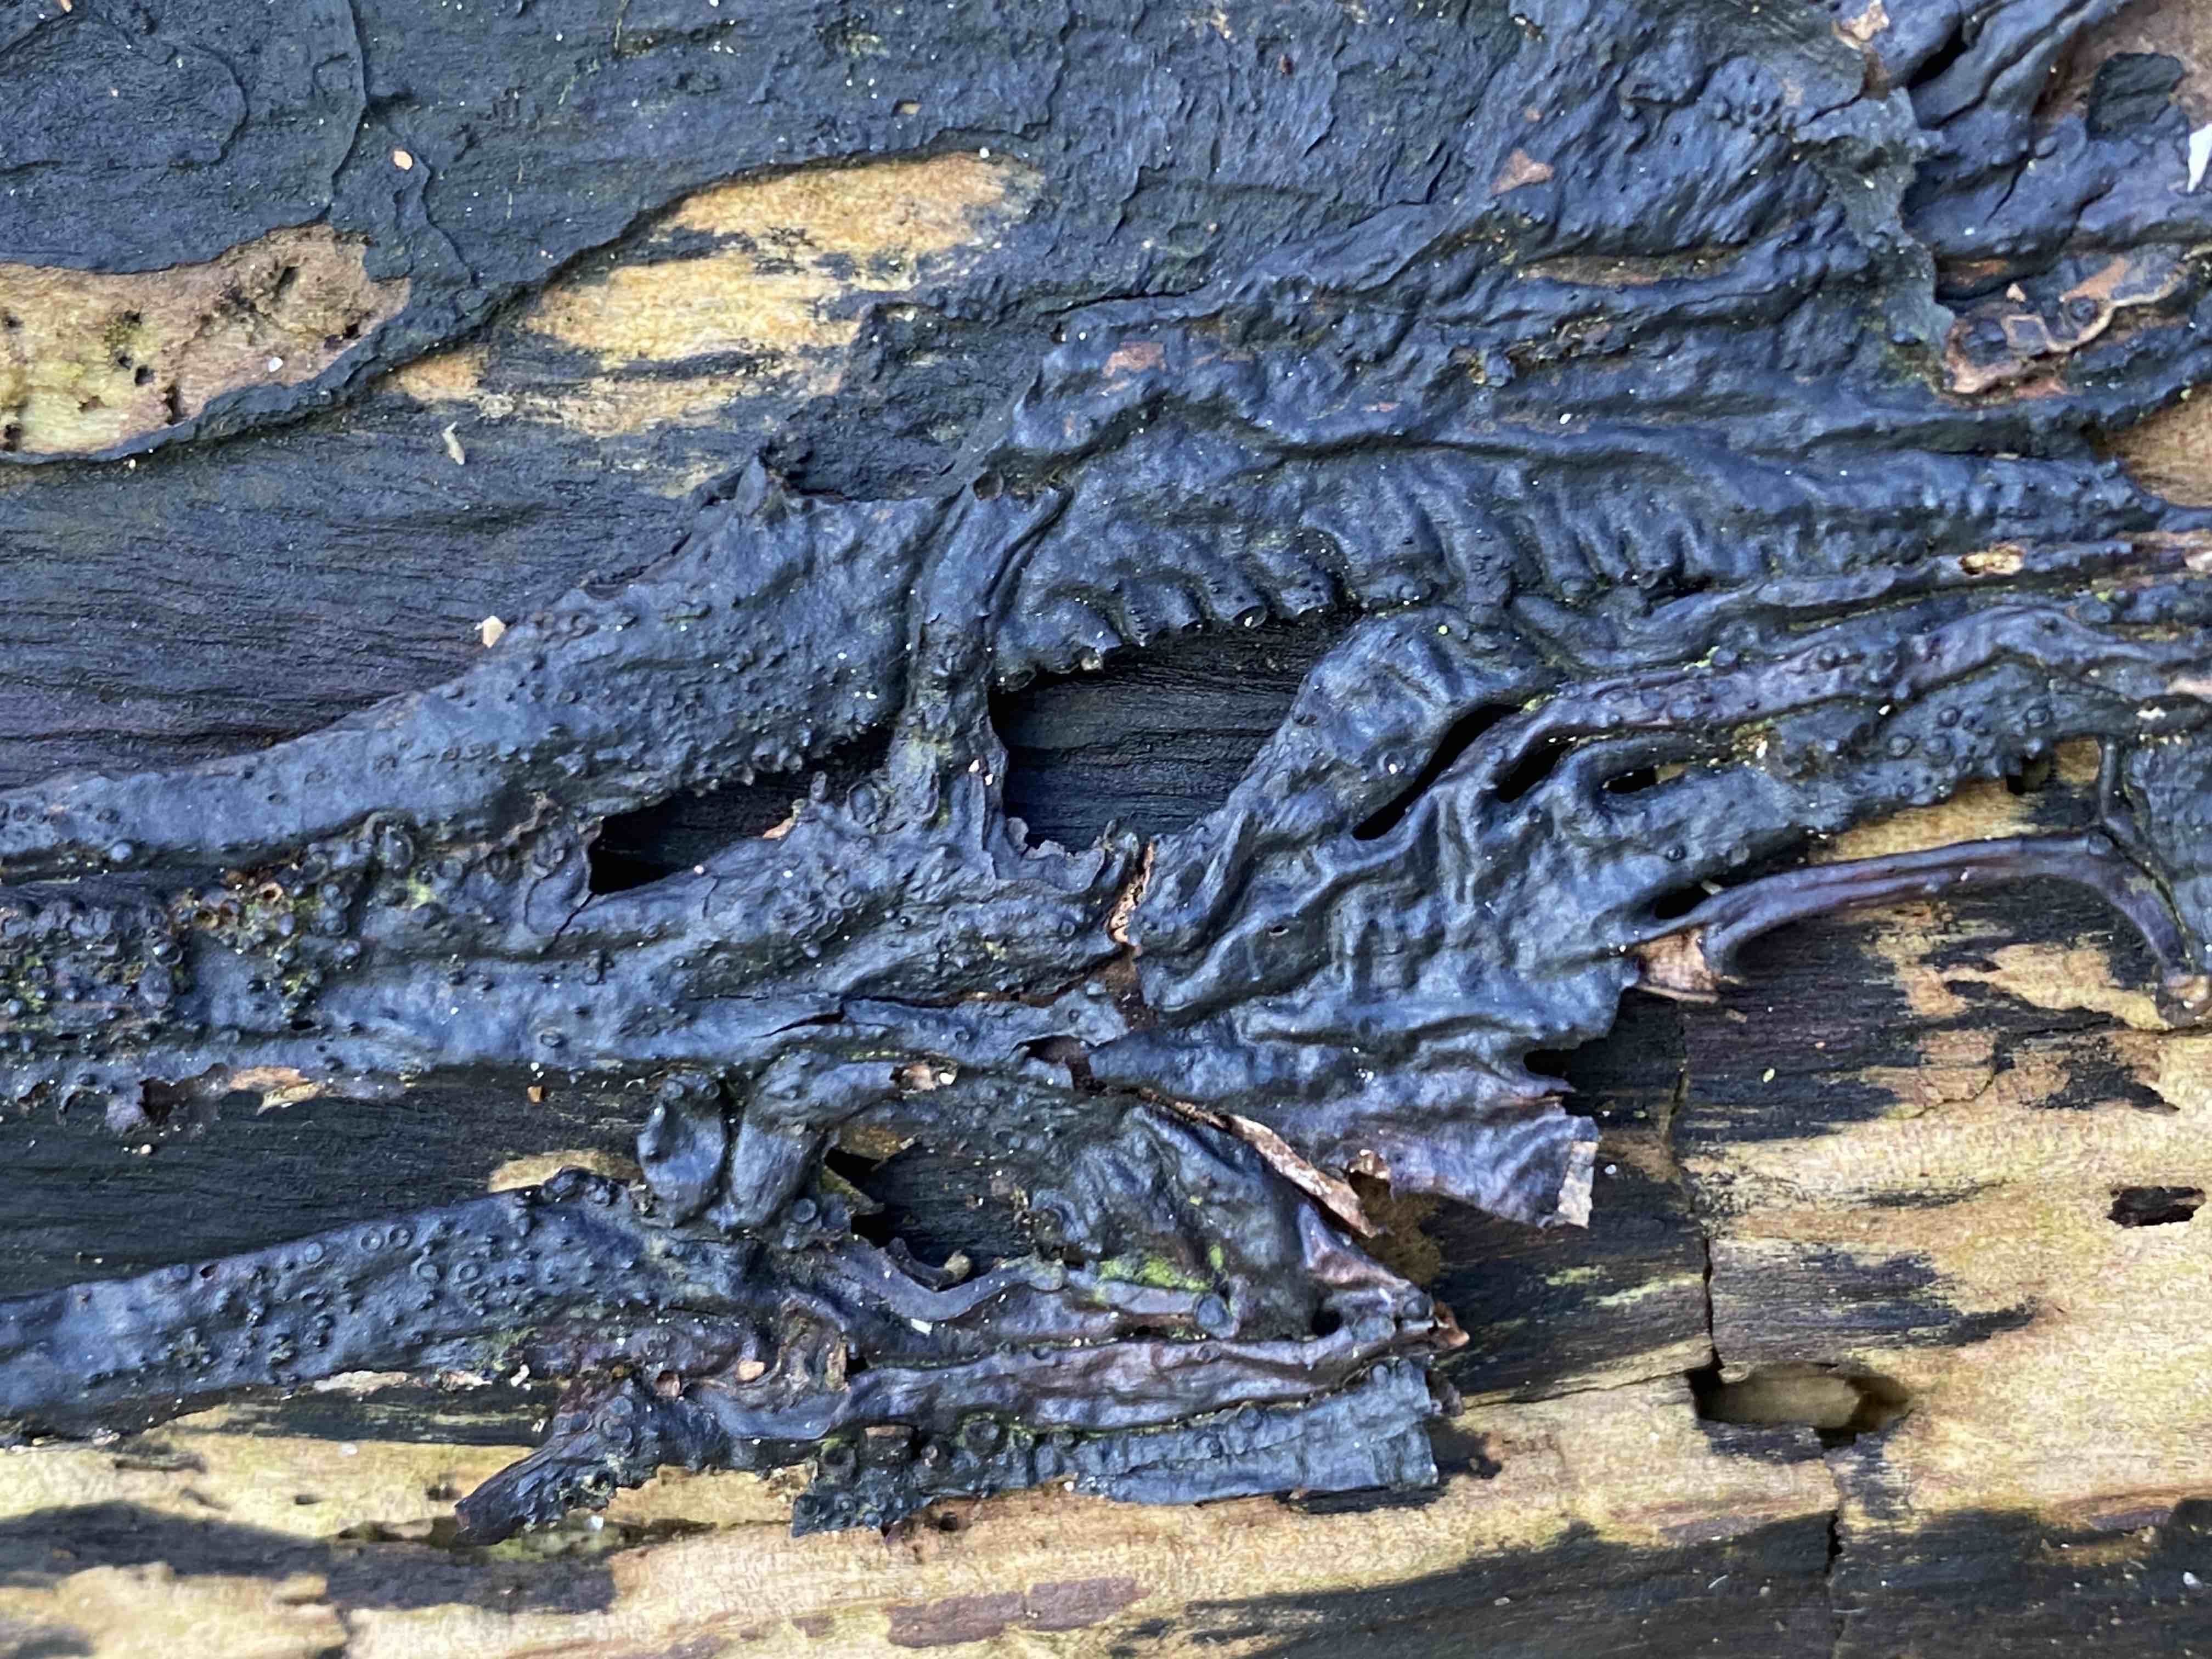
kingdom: Fungi
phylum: Basidiomycota
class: Agaricomycetes
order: Agaricales
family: Physalacriaceae
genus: Armillaria
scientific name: Armillaria
